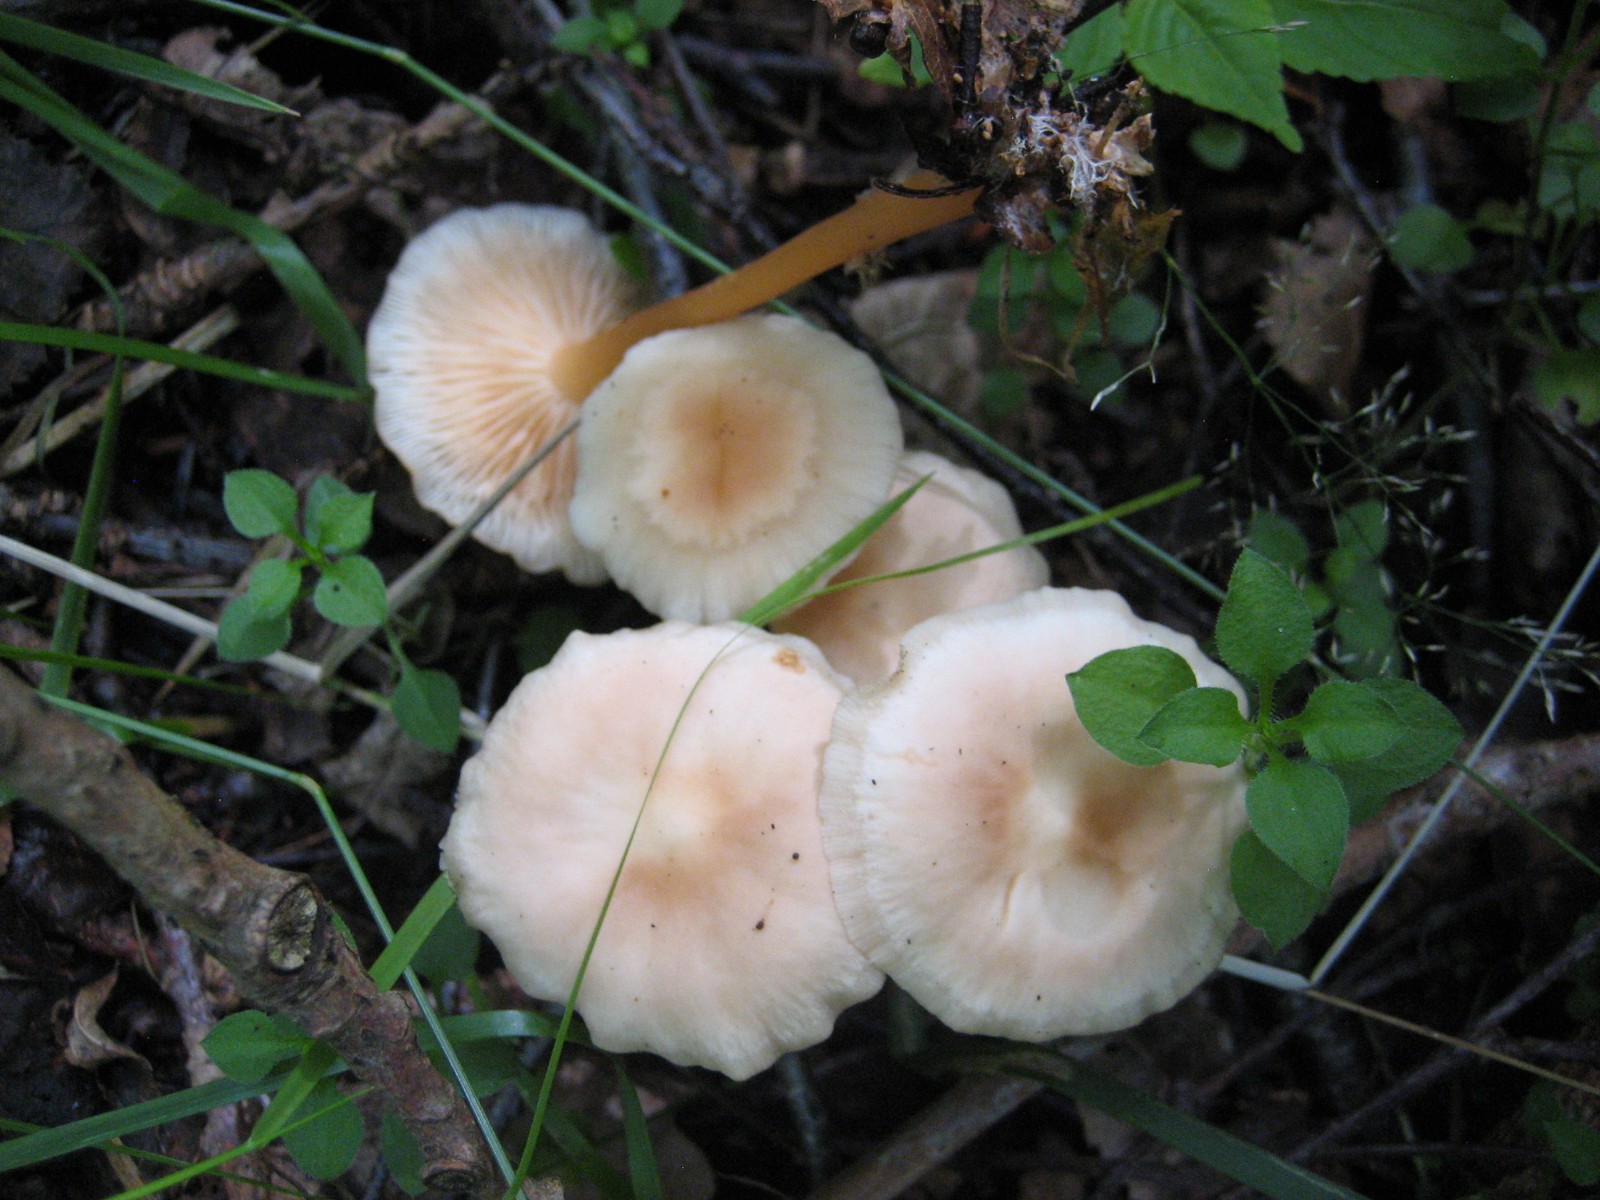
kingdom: Fungi
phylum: Basidiomycota
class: Agaricomycetes
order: Agaricales
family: Omphalotaceae
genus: Gymnopus
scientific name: Gymnopus dryophilus
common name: løv-fladhat
